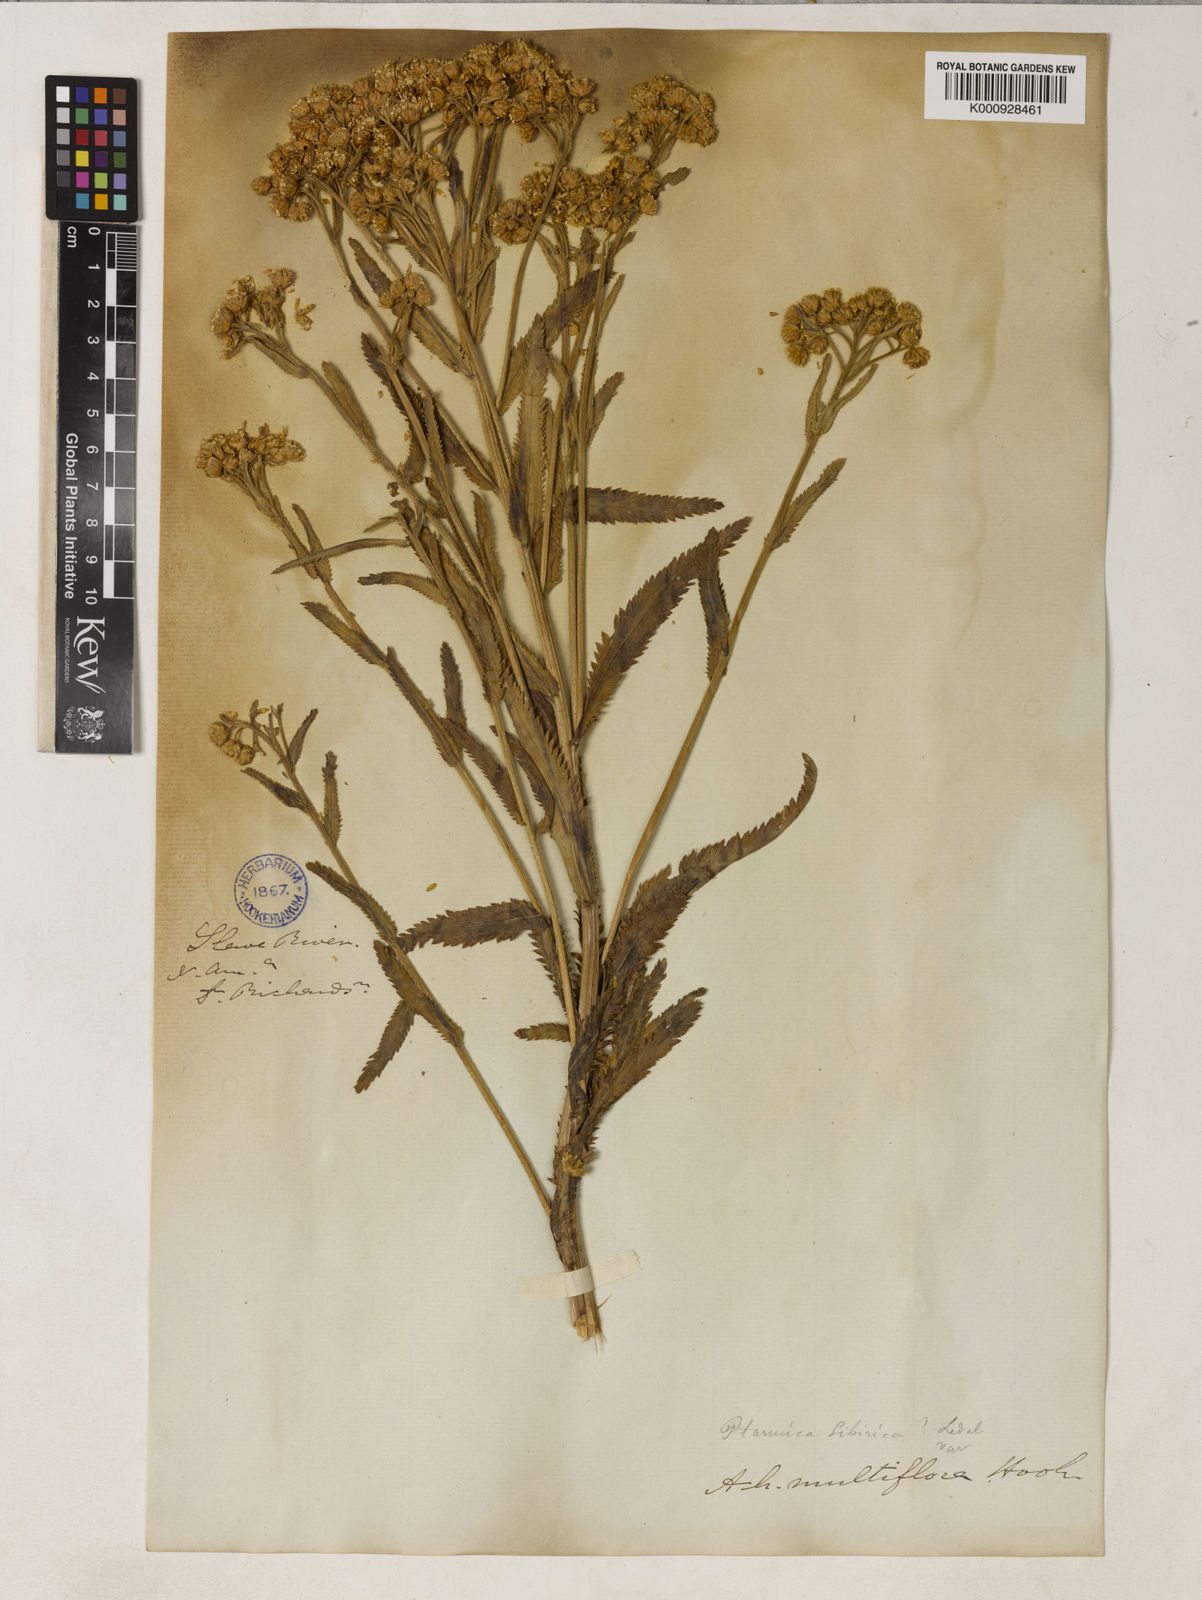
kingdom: Plantae
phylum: Tracheophyta
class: Magnoliopsida
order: Asterales
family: Asteraceae
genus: Achillea
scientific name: Achillea alpina
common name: Siberian yarrow
